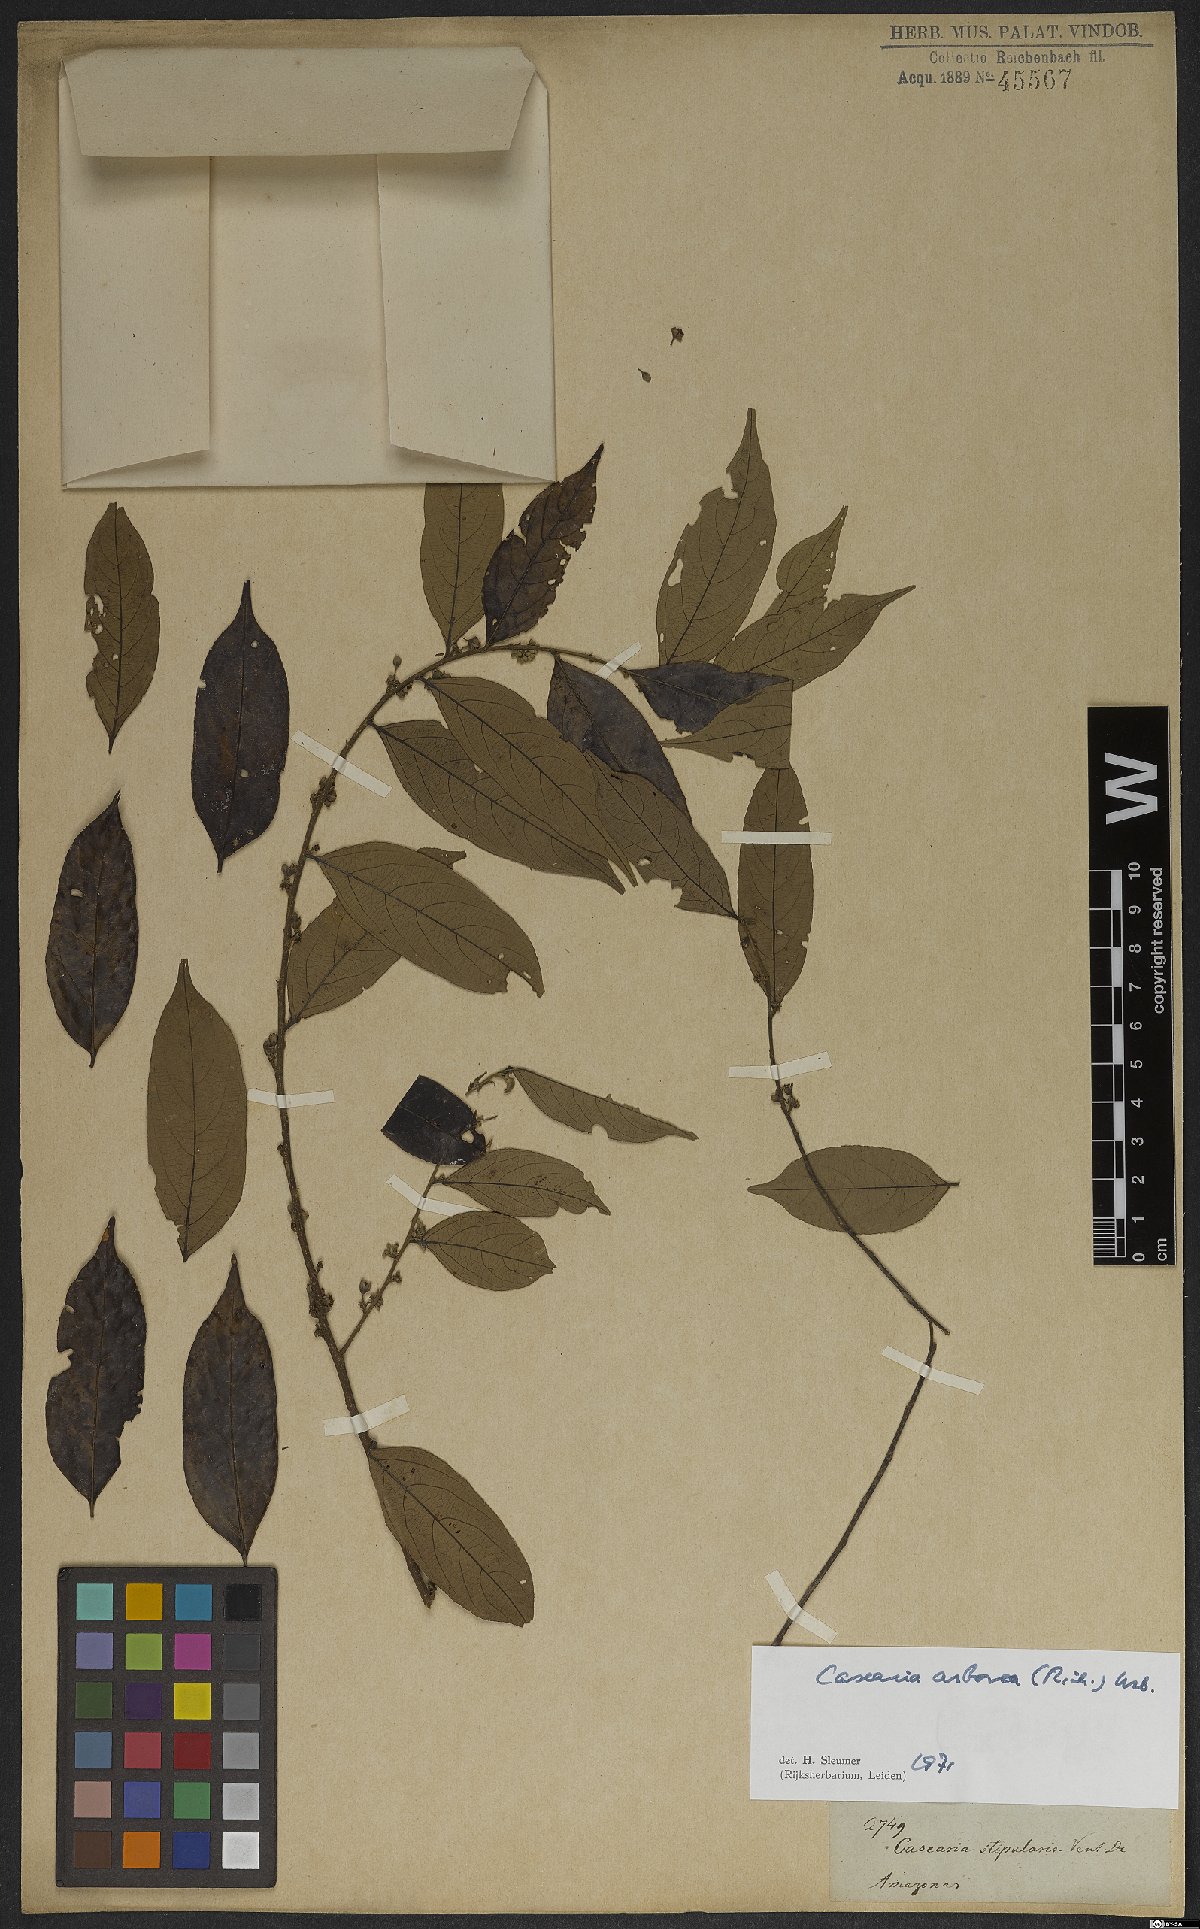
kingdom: Plantae
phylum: Tracheophyta
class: Magnoliopsida
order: Malpighiales
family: Salicaceae
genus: Casearia
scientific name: Casearia arborea
